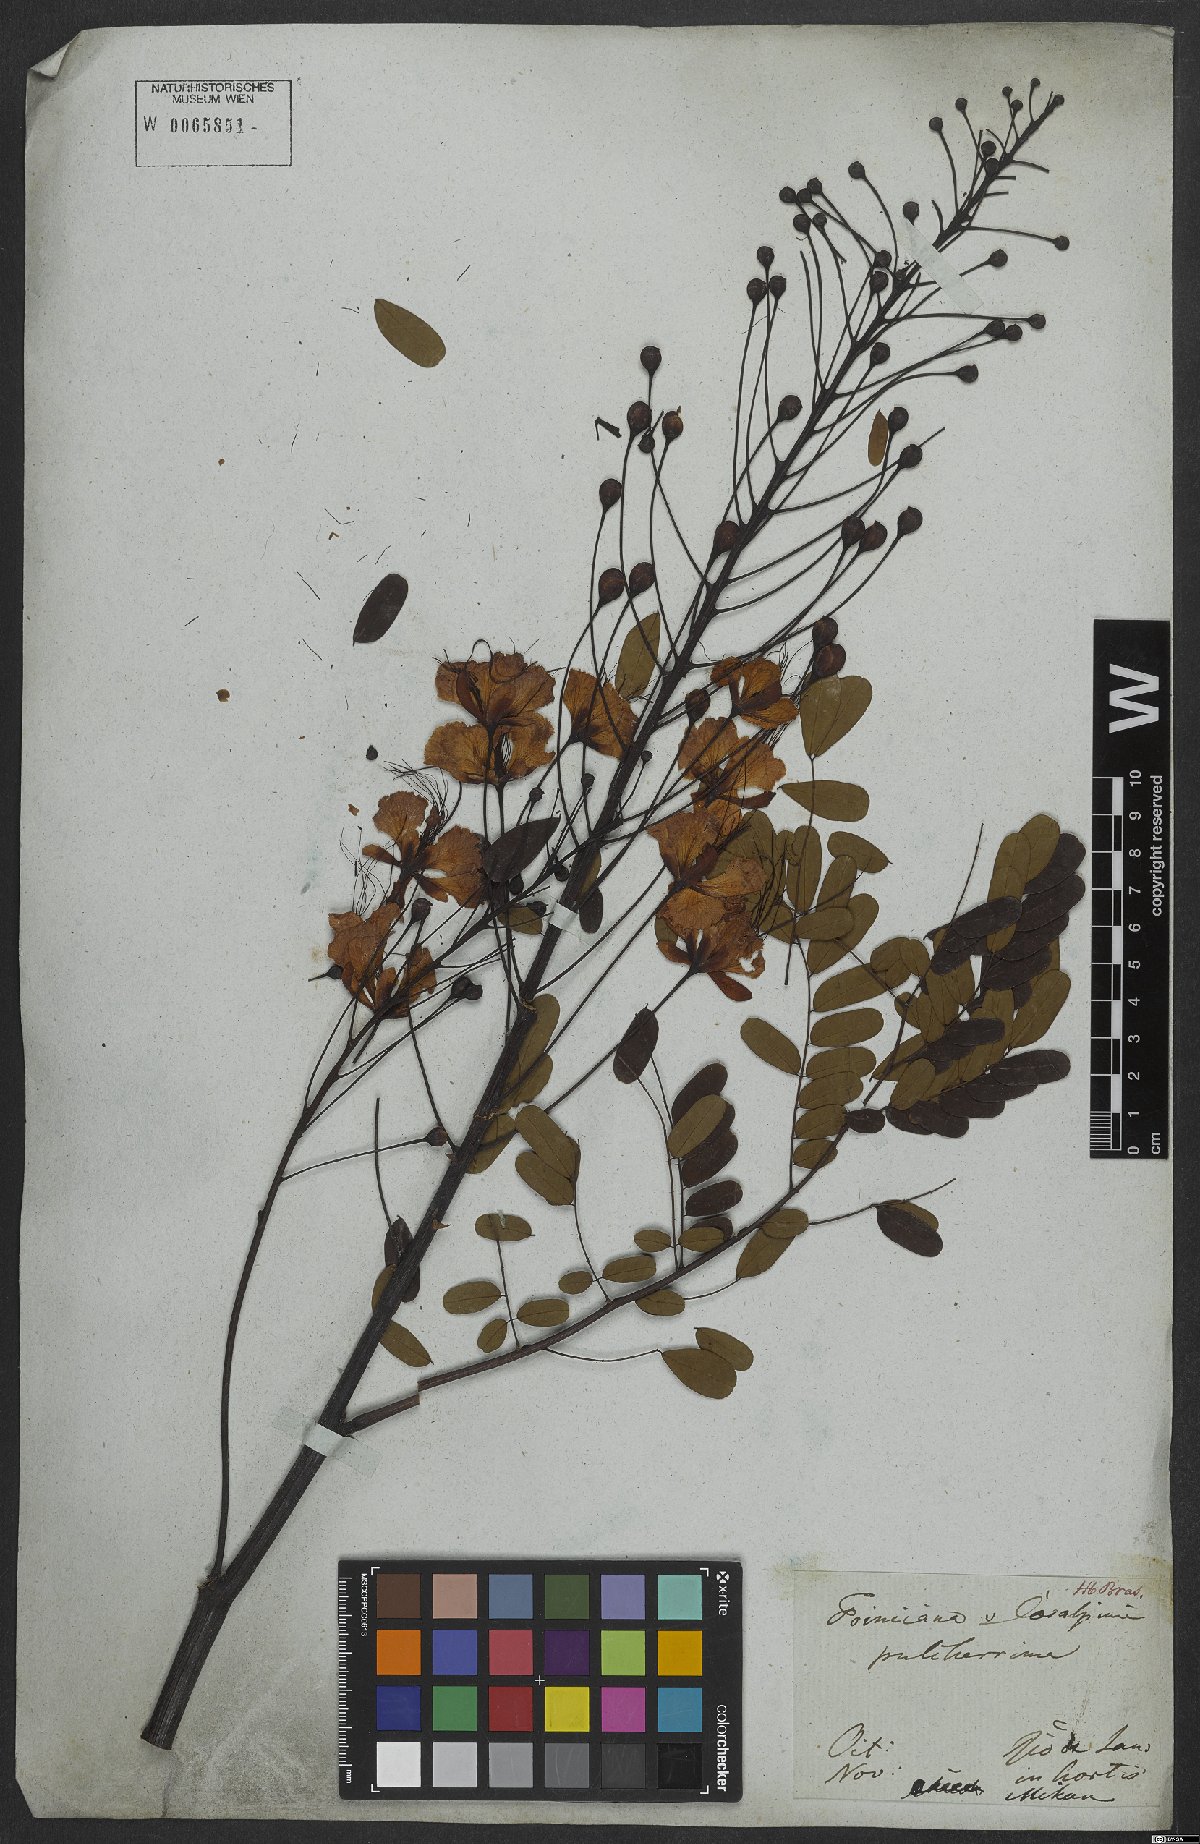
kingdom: Plantae
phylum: Tracheophyta
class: Magnoliopsida
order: Fabales
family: Fabaceae
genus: Caesalpinia
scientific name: Caesalpinia pulcherrima
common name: Pride-of-barbados
